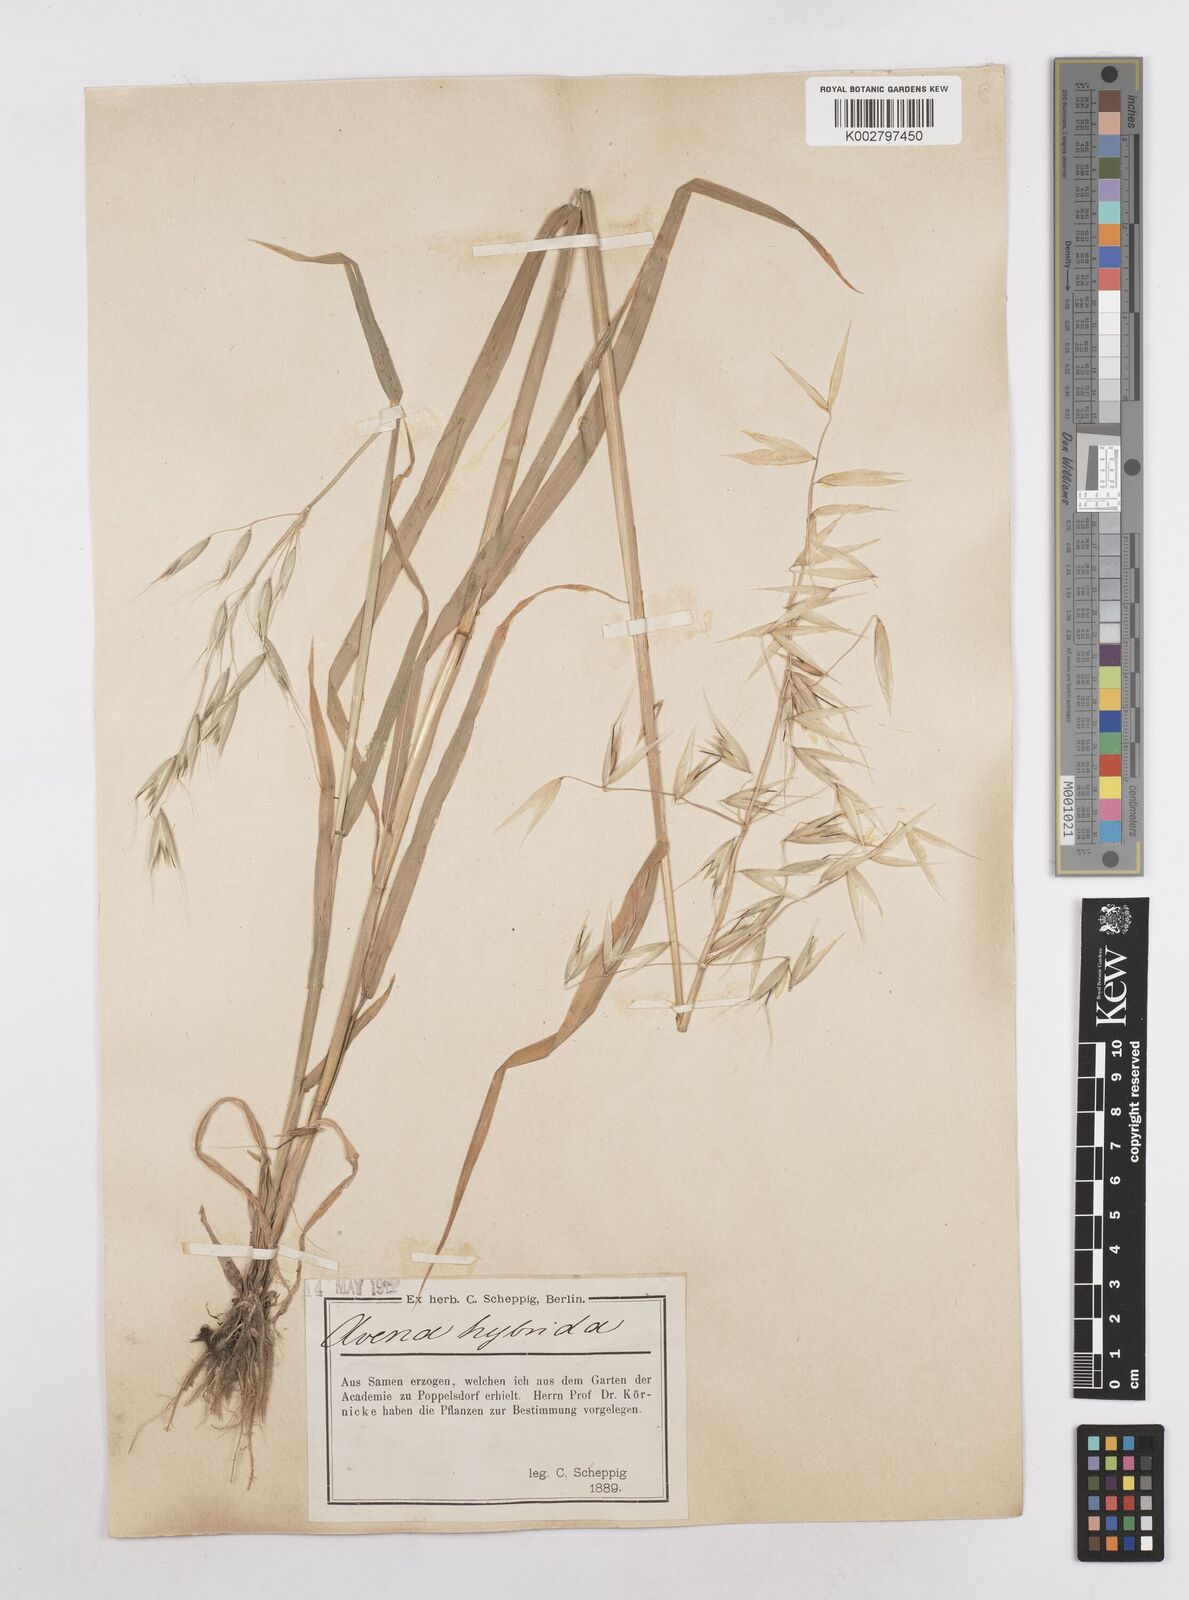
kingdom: Plantae
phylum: Tracheophyta
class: Liliopsida
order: Poales
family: Poaceae
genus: Avena
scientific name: Avena fatua
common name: Wild oat
